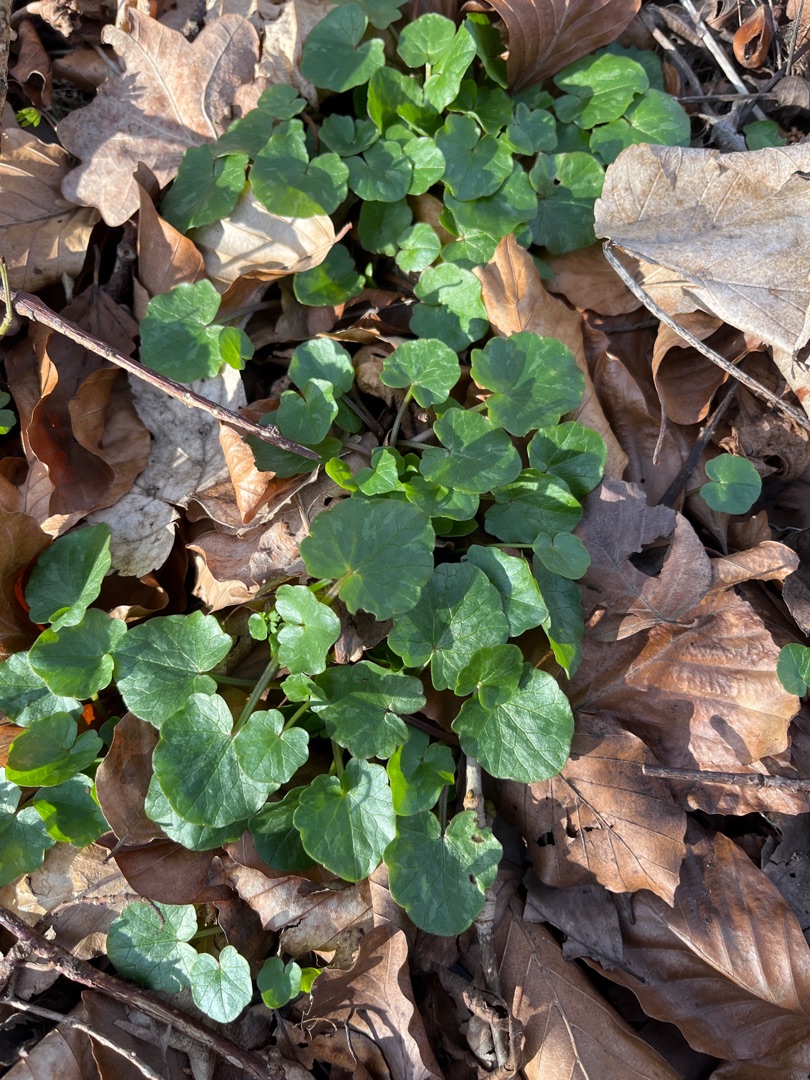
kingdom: Plantae
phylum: Tracheophyta
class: Magnoliopsida
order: Ranunculales
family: Ranunculaceae
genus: Ficaria
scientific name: Ficaria verna
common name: Vorterod
